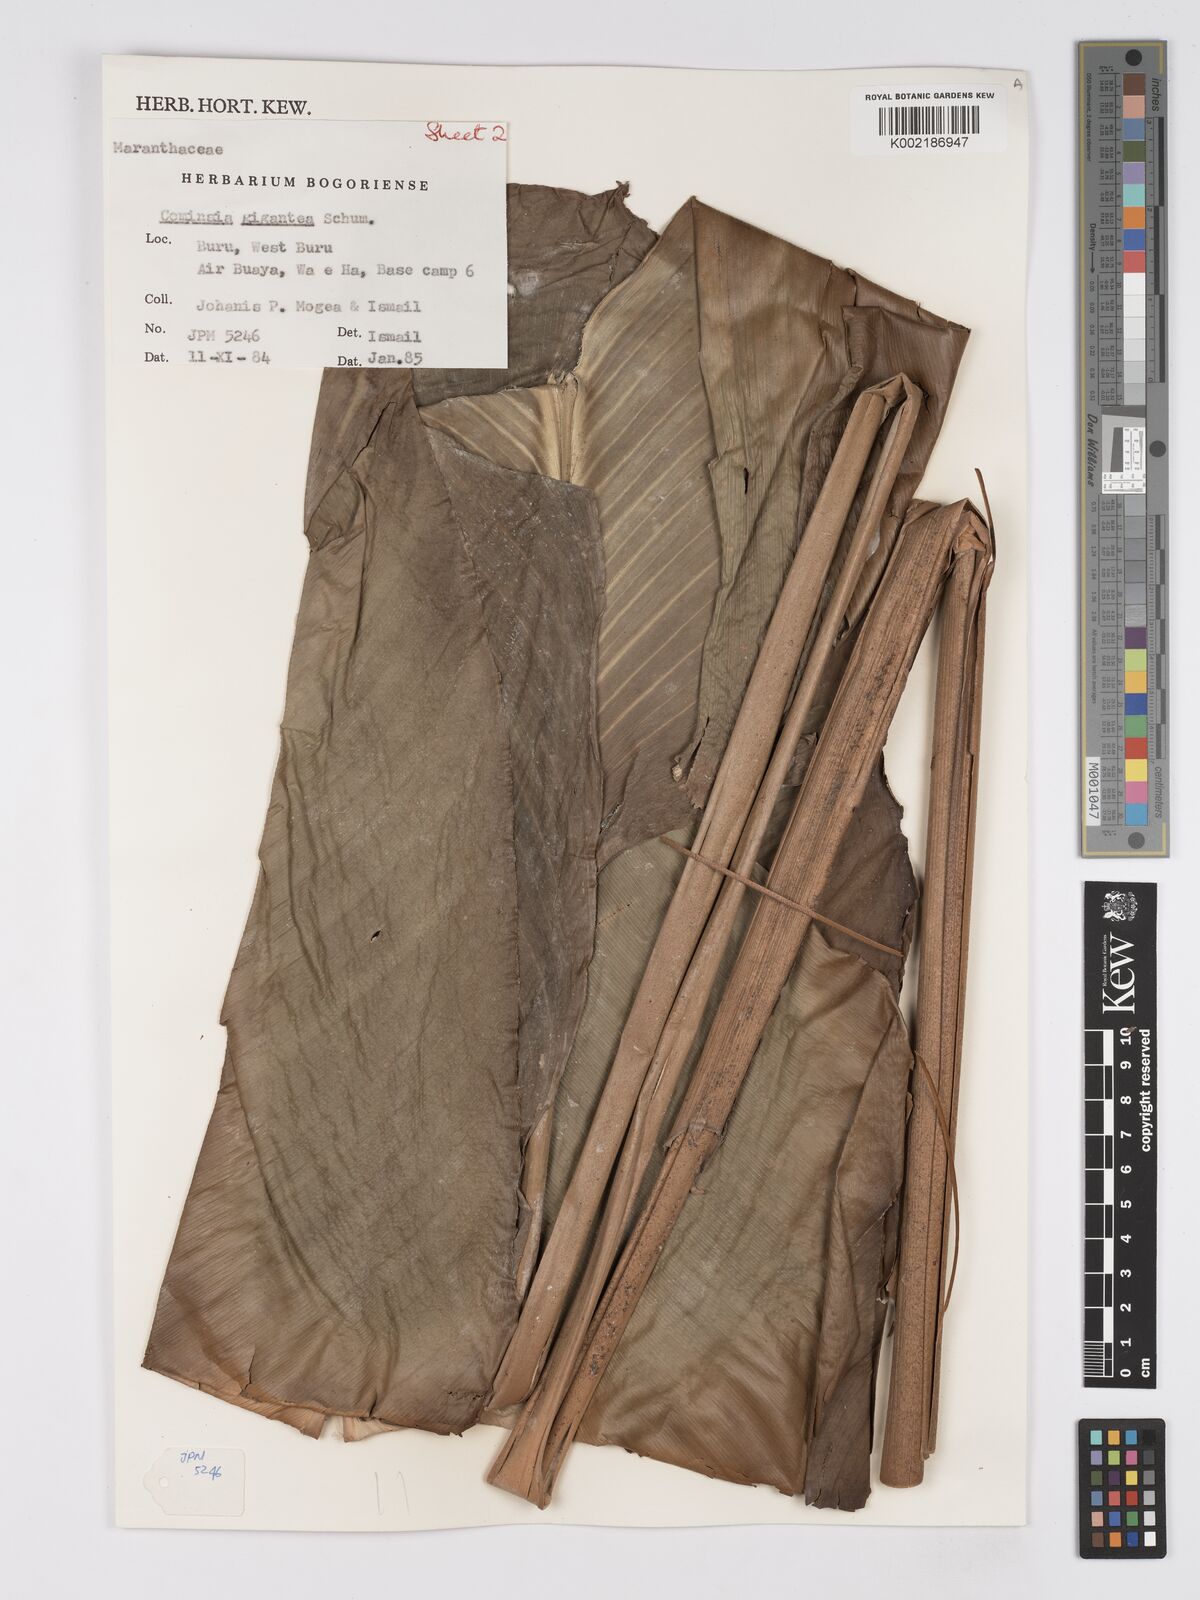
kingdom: Plantae
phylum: Tracheophyta
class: Liliopsida
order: Zingiberales
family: Marantaceae
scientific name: Marantaceae
